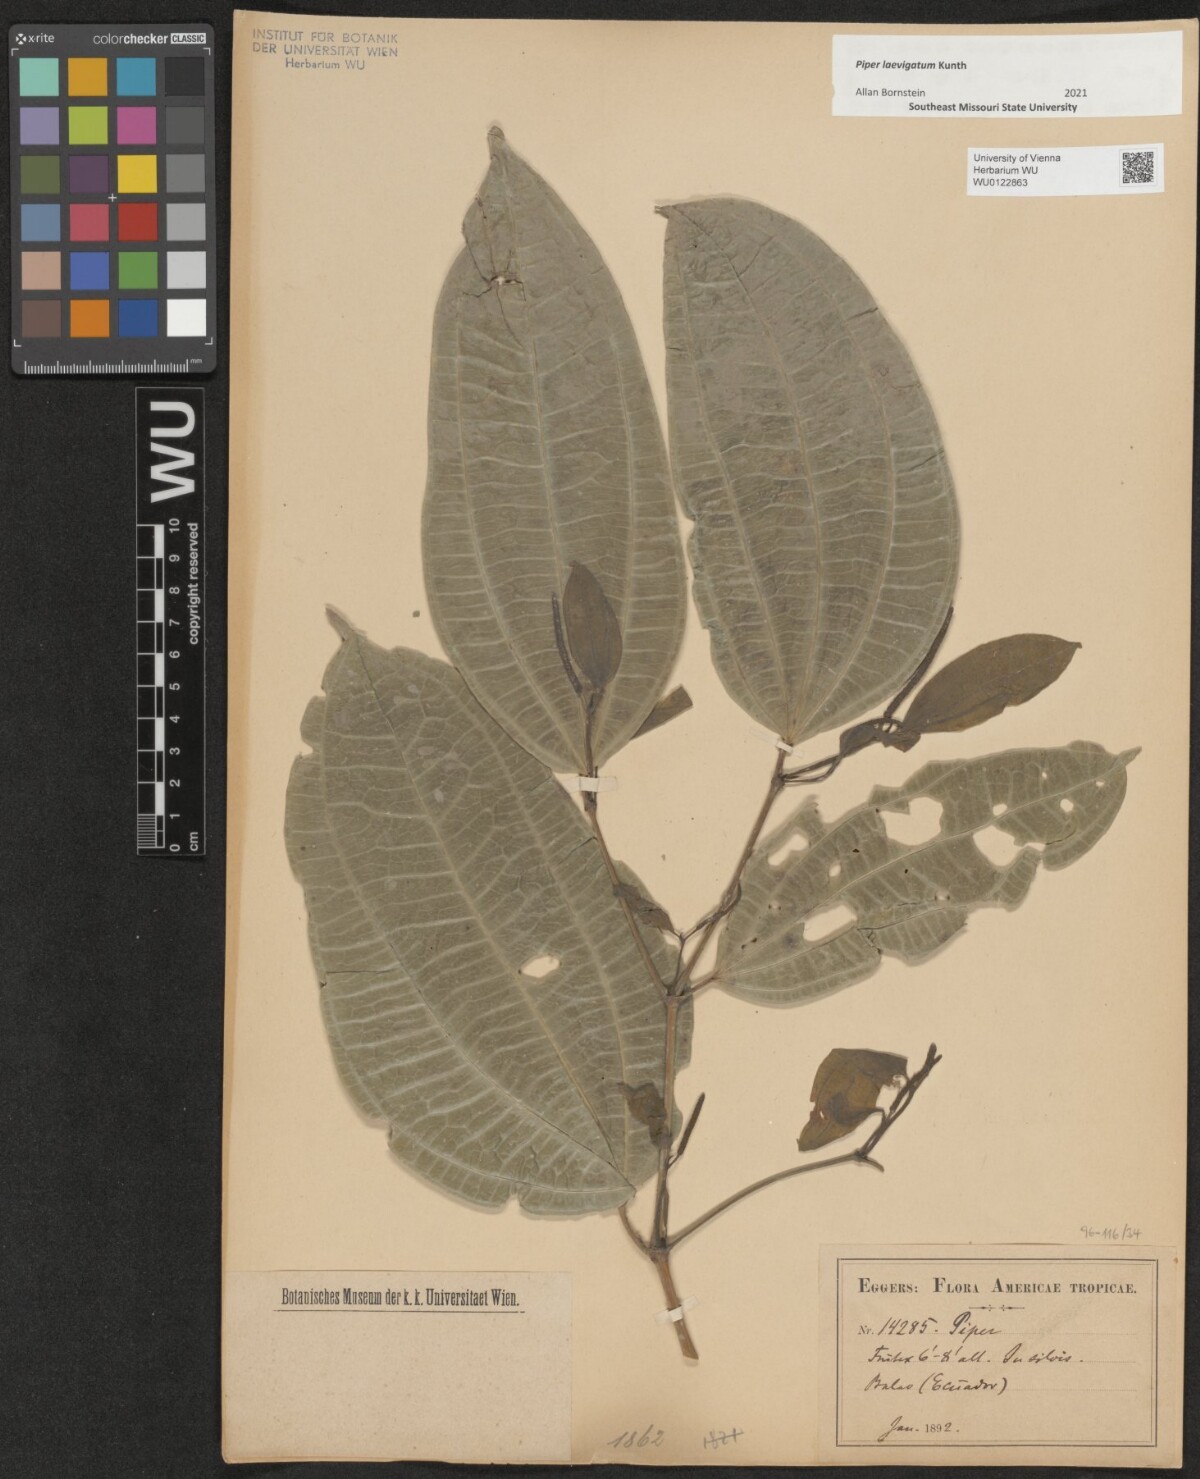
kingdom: Plantae
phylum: Tracheophyta
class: Magnoliopsida
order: Piperales
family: Piperaceae
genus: Piper
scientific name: Piper laevigatum
